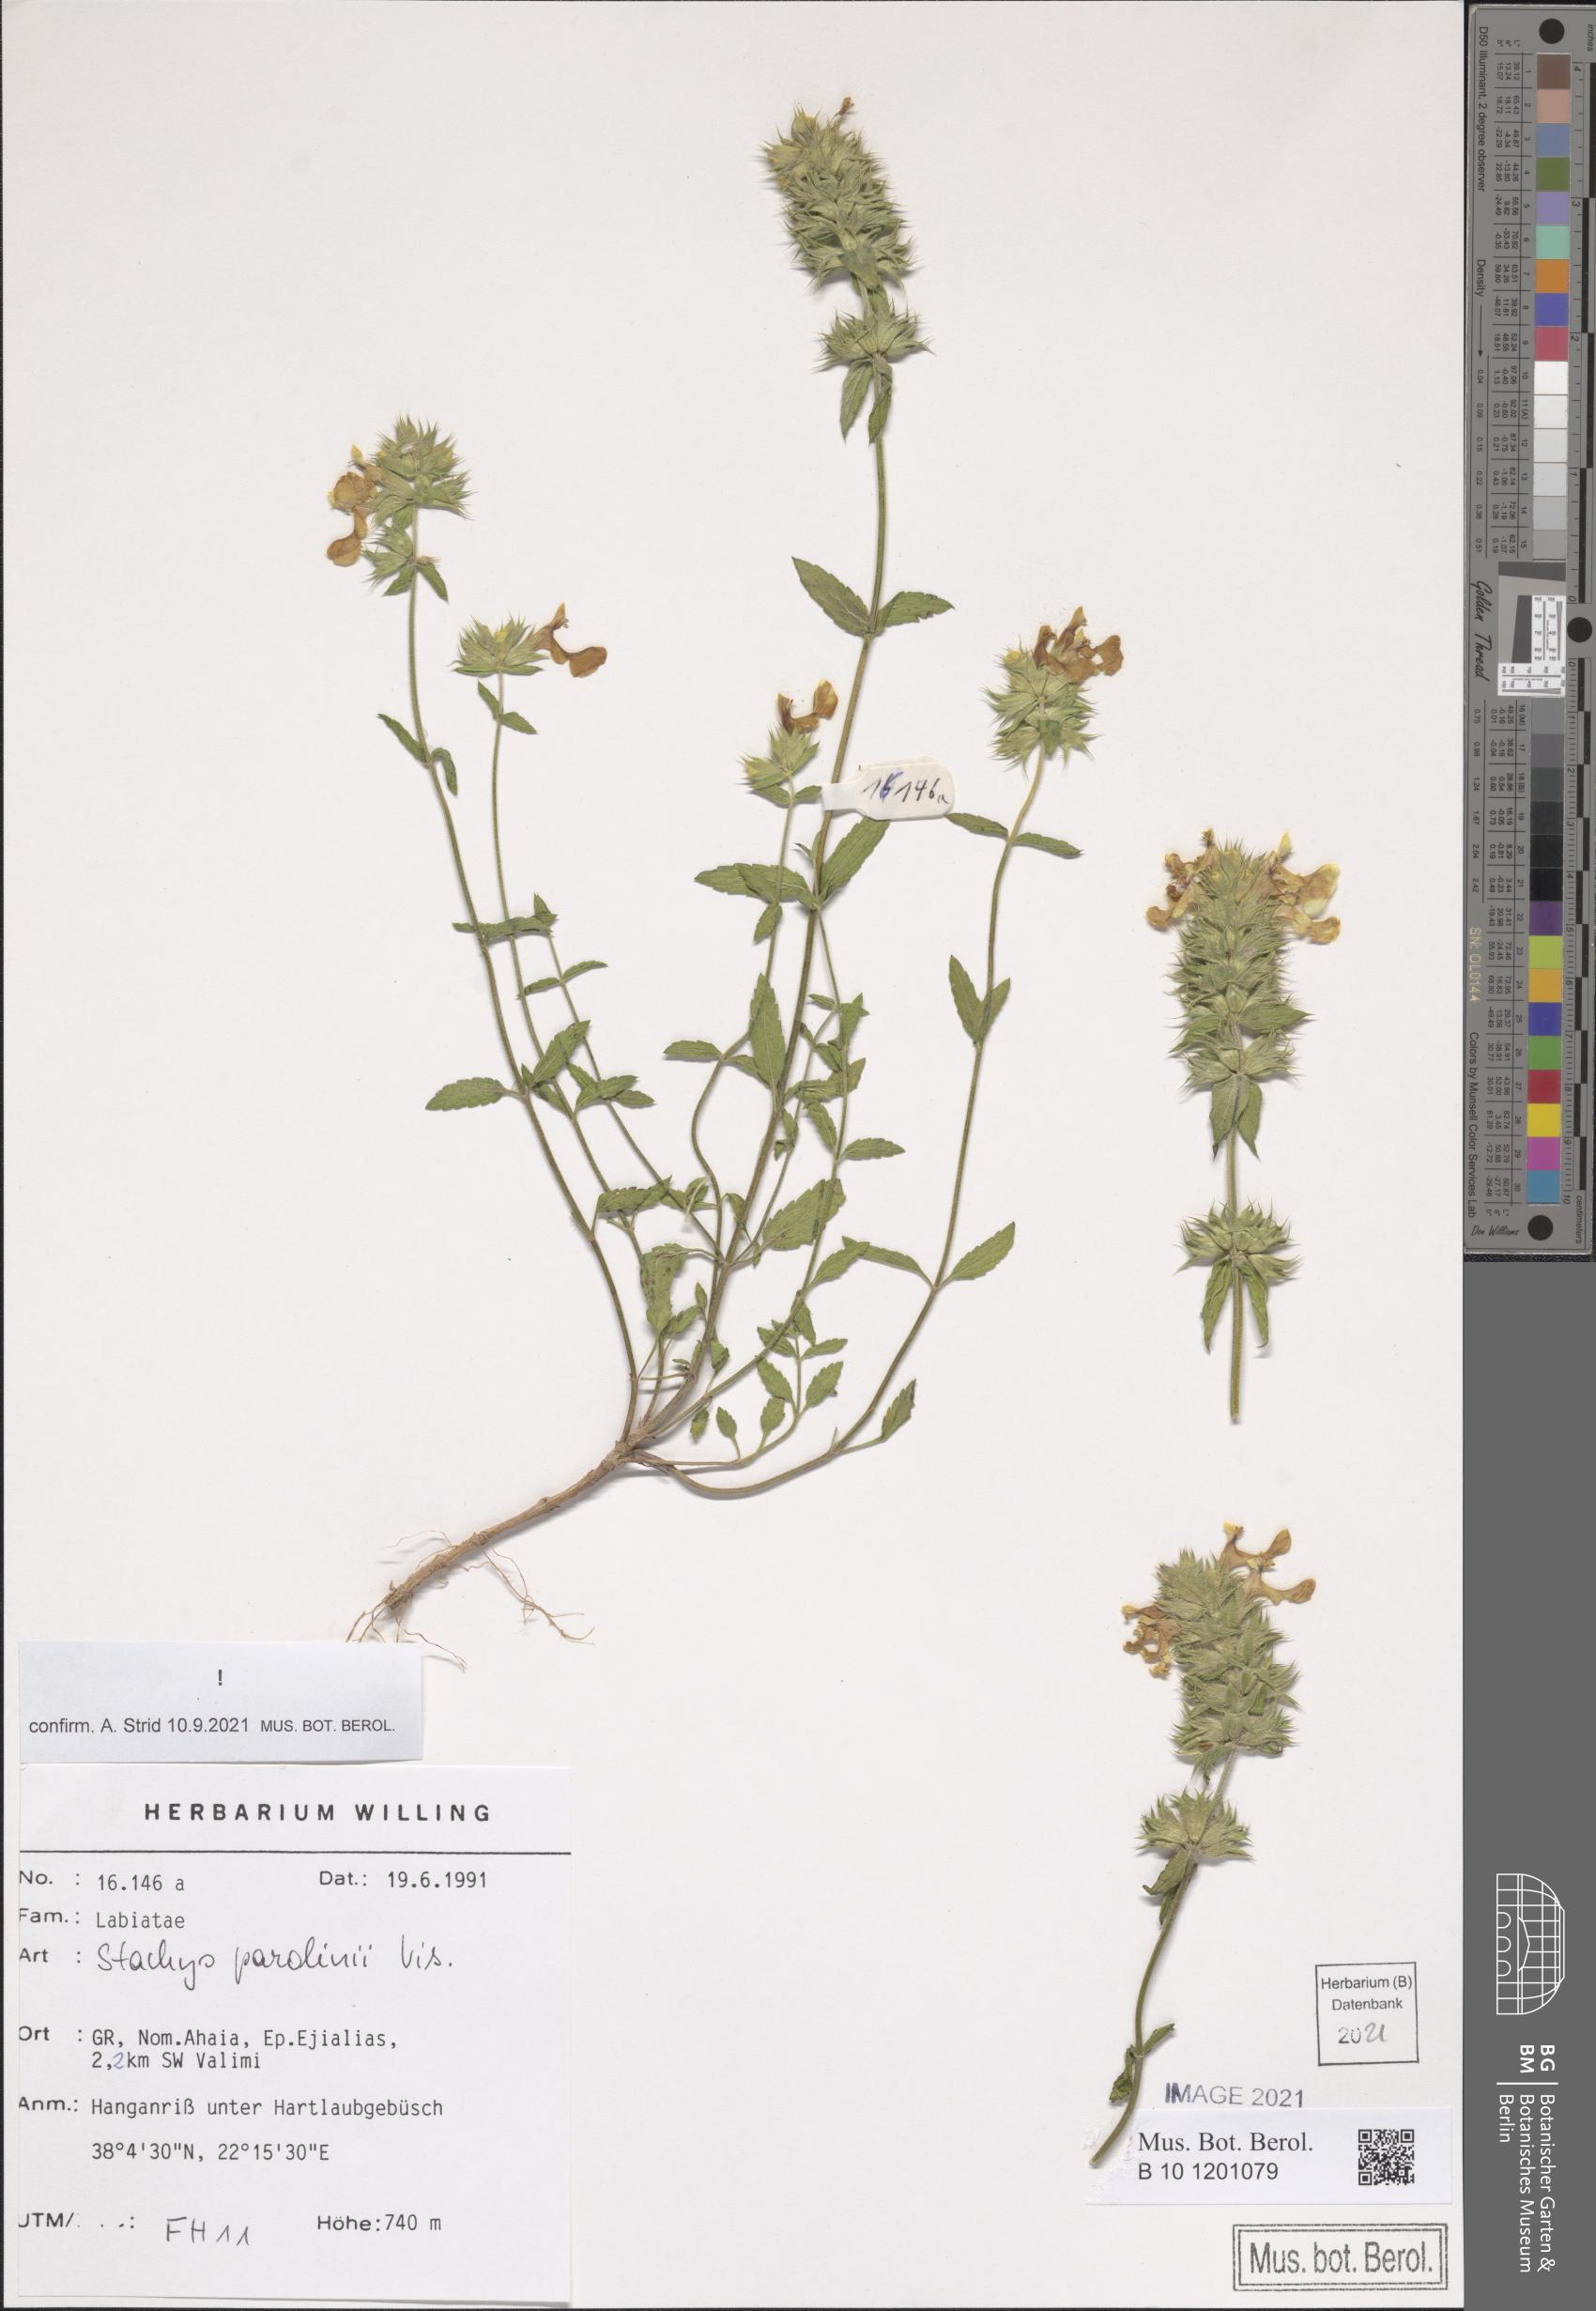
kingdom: Plantae
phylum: Tracheophyta
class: Magnoliopsida
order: Lamiales
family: Lamiaceae
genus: Stachys
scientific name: Stachys parolinii
